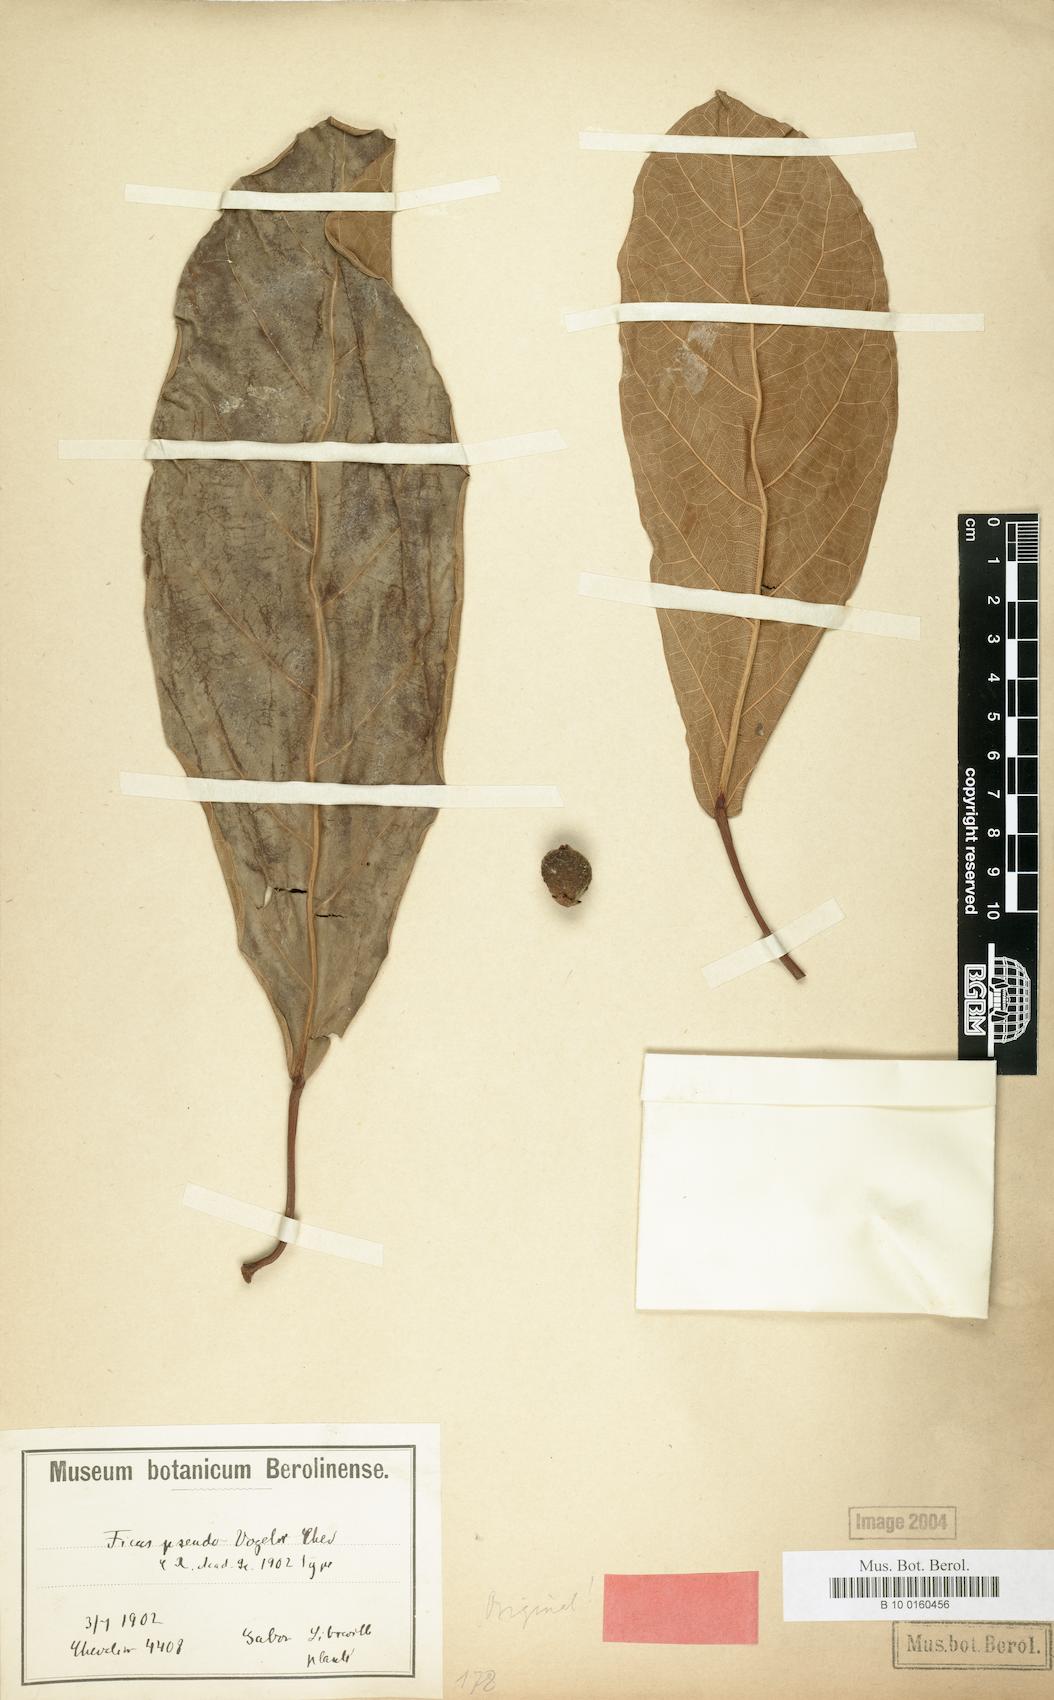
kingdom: Plantae
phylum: Tracheophyta
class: Magnoliopsida
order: Rosales
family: Moraceae
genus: Ficus
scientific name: Ficus lutea
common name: Giant-leaved fig
